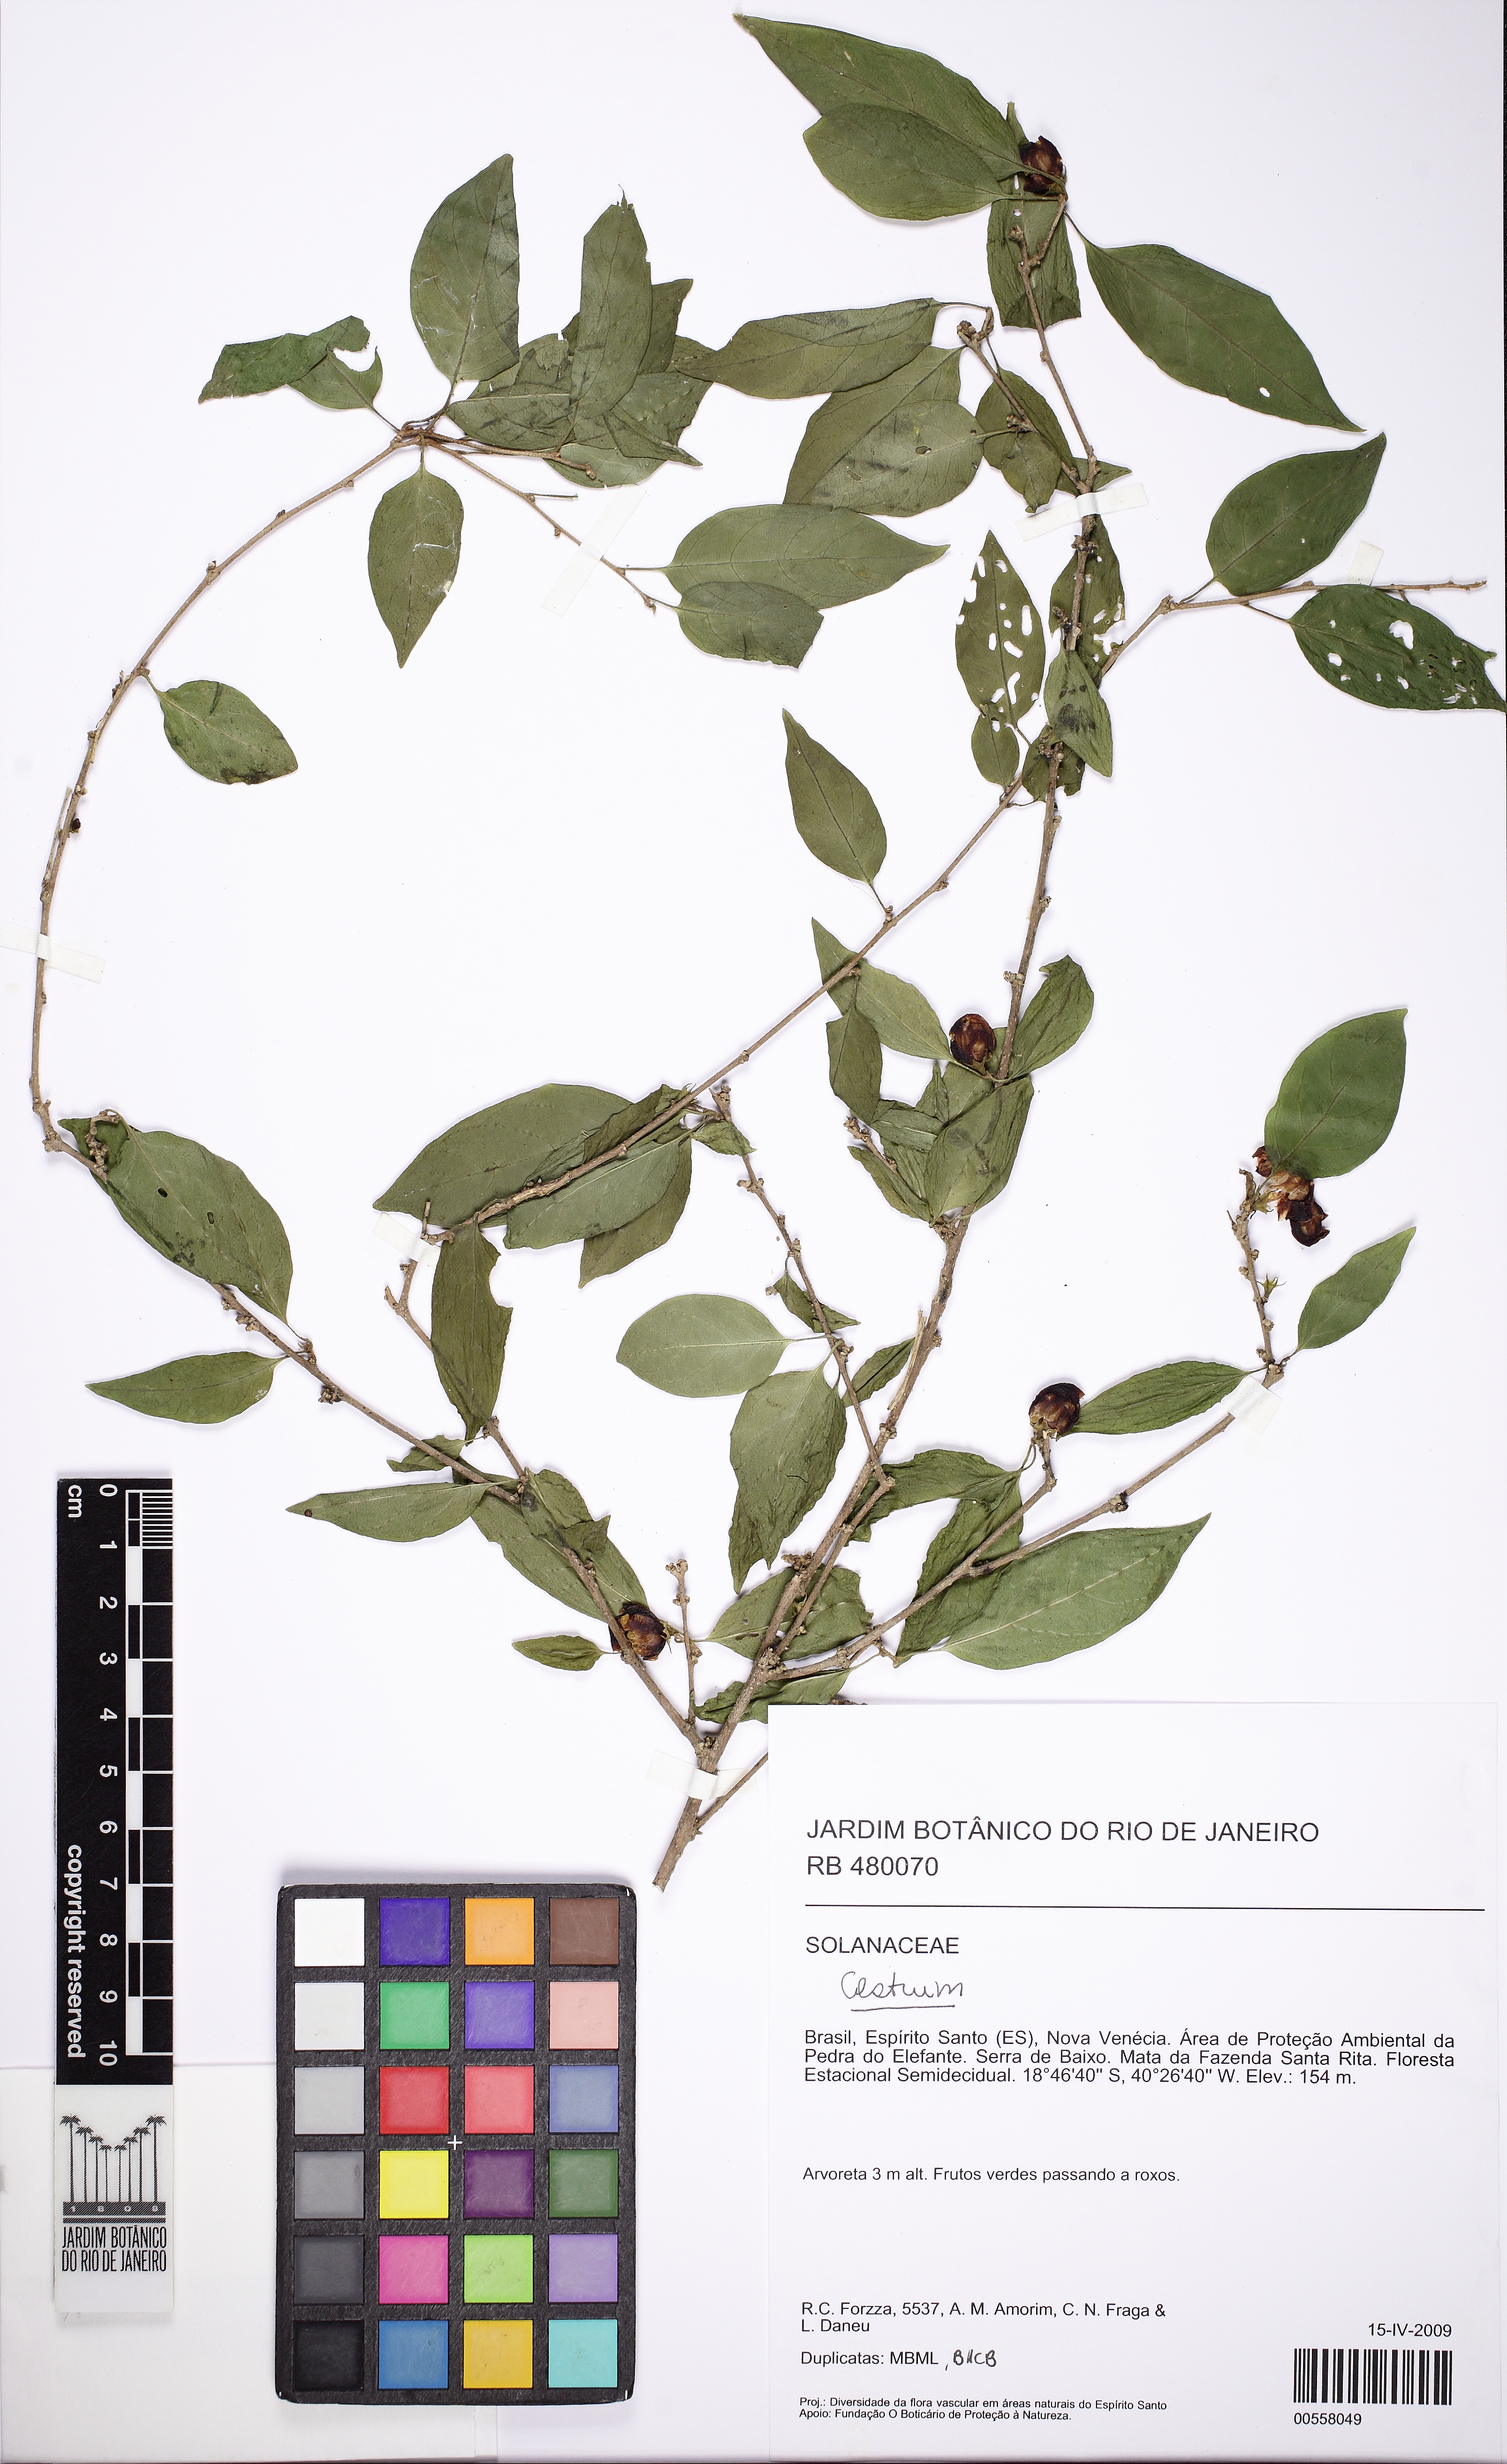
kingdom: Plantae
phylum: Tracheophyta
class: Magnoliopsida
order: Solanales
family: Solanaceae
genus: Cestrum
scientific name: Cestrum
